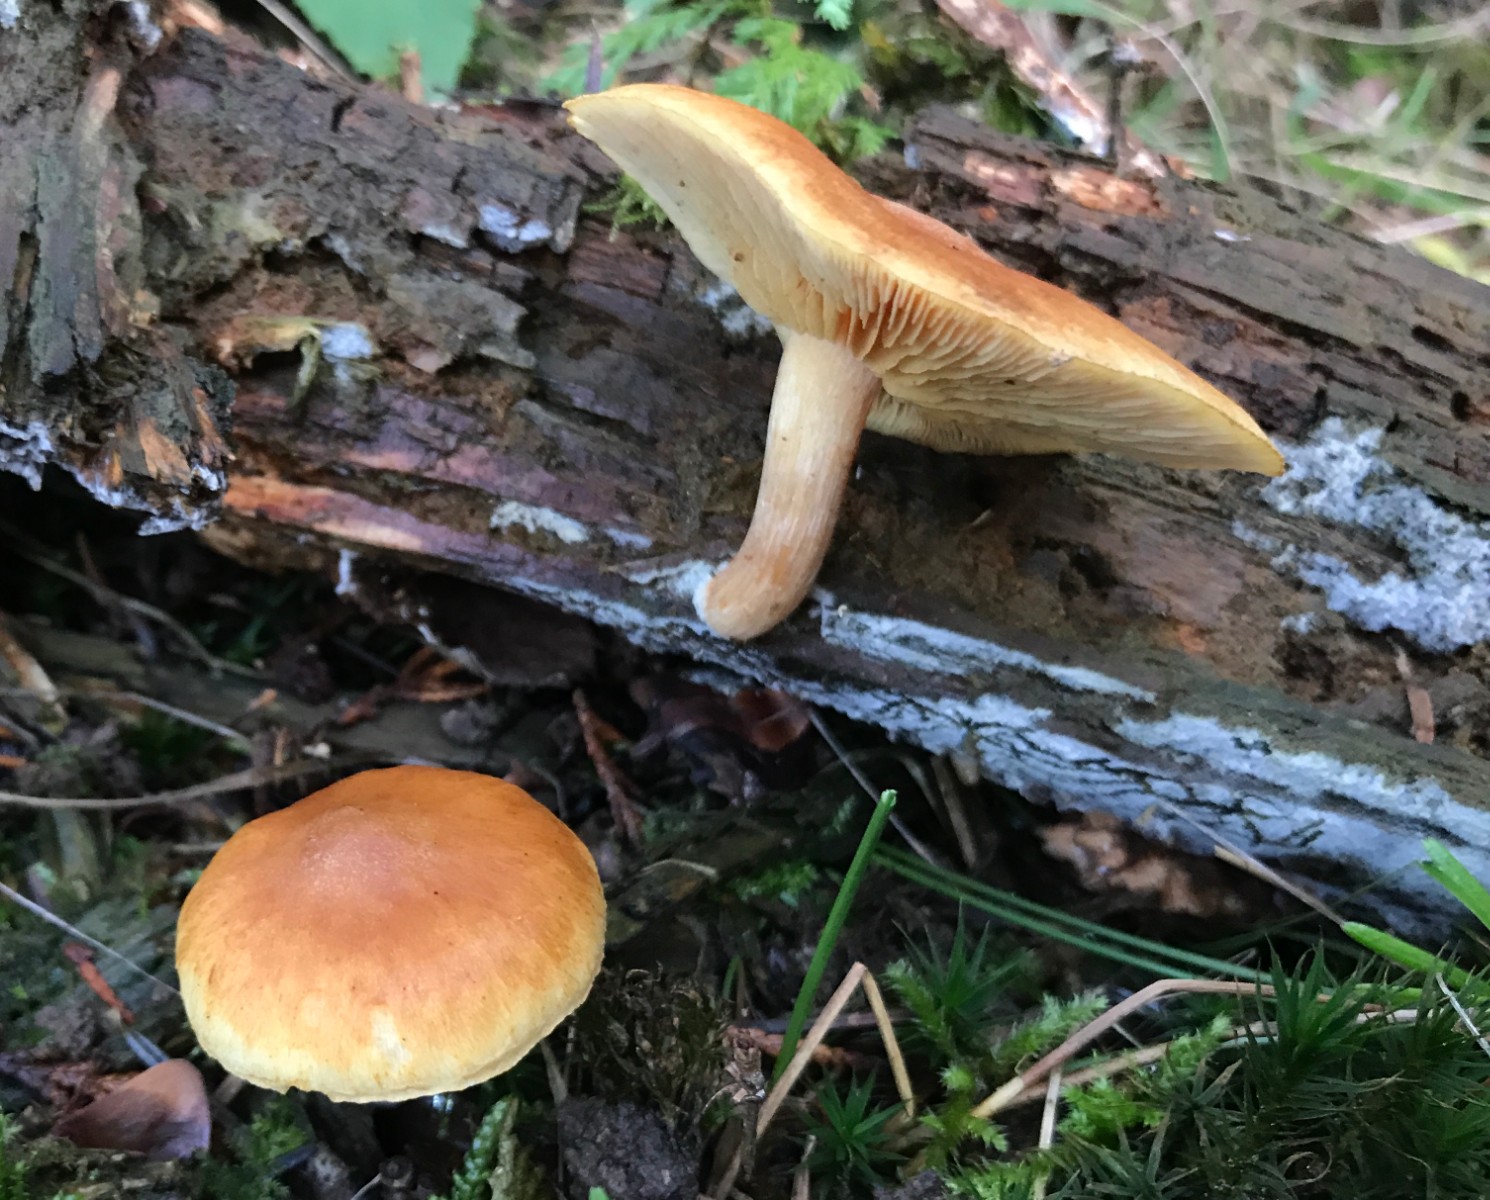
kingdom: Fungi
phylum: Basidiomycota
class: Agaricomycetes
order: Agaricales
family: Hymenogastraceae
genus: Gymnopilus
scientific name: Gymnopilus penetrans
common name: plettet flammehat
